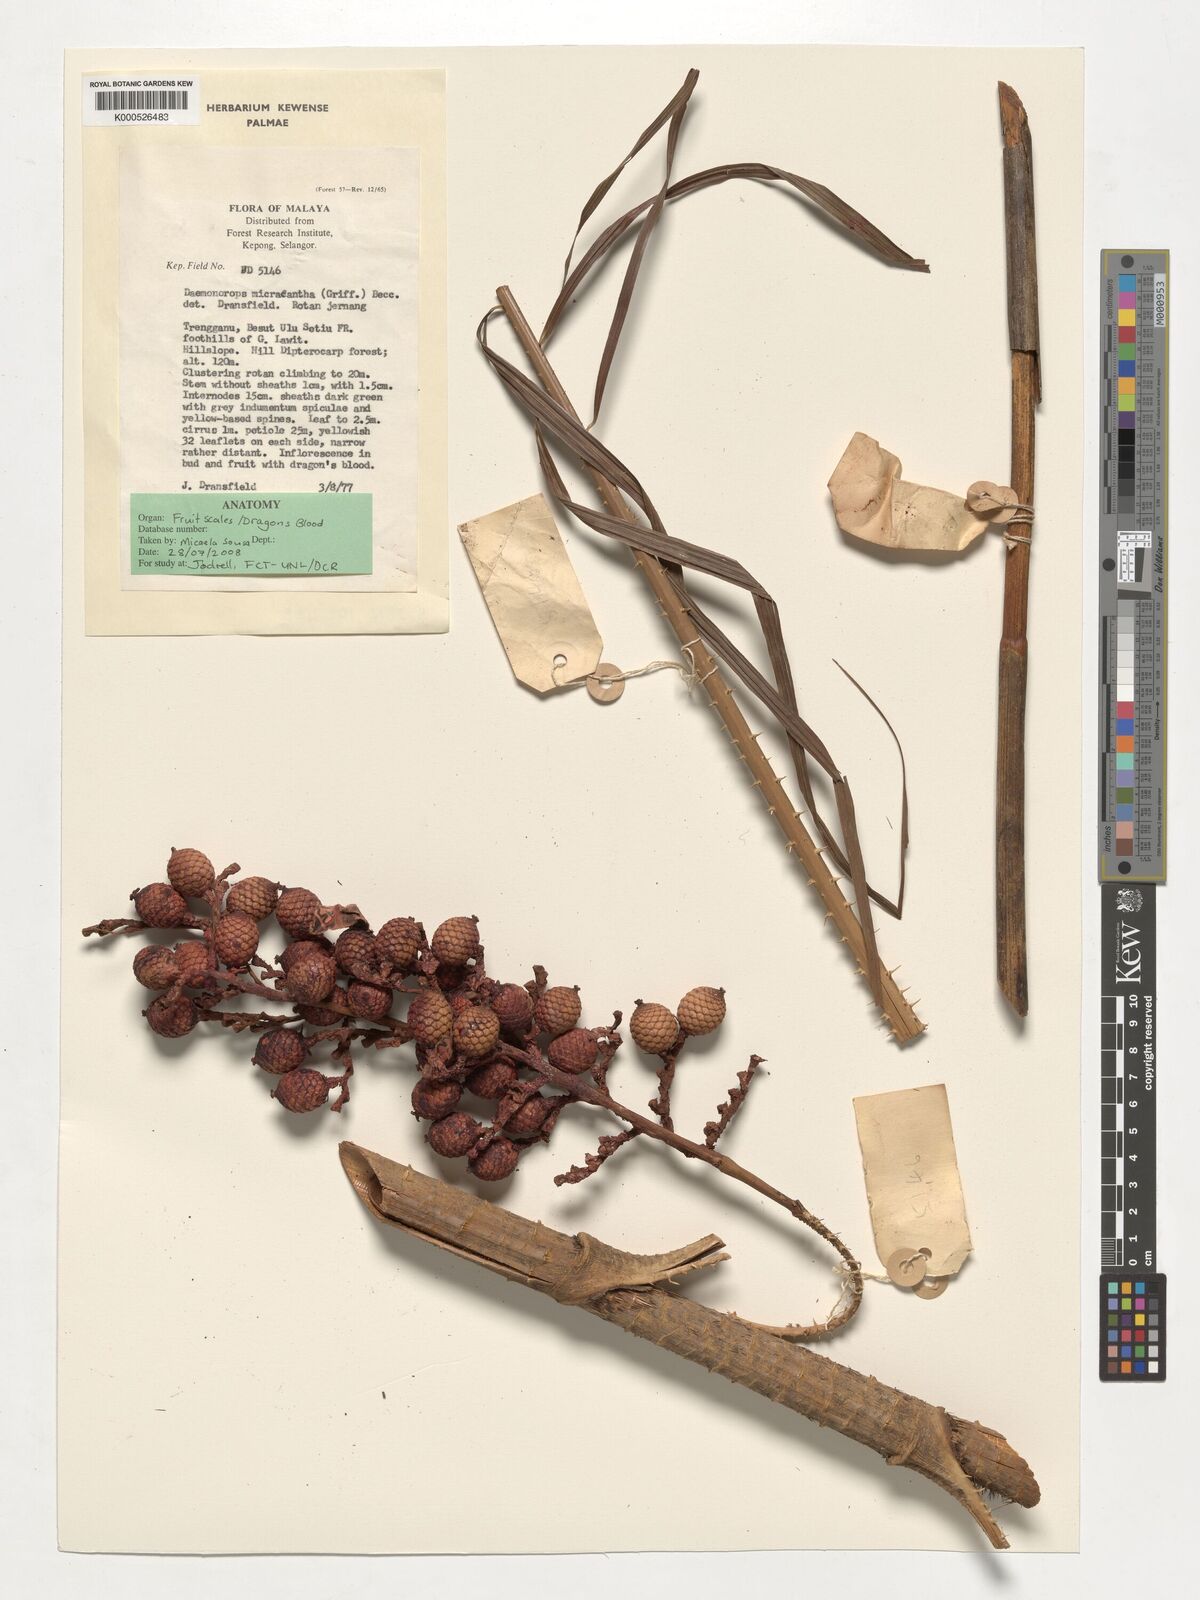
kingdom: Plantae
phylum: Tracheophyta
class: Liliopsida
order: Arecales
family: Arecaceae
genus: Calamus
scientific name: Calamus micracanthus
